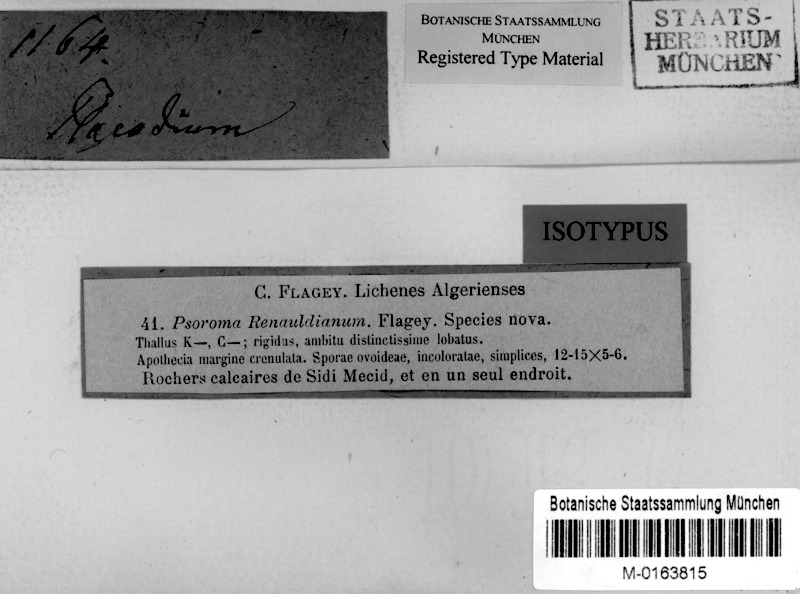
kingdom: Fungi
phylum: Ascomycota
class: Lecanoromycetes
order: Lecanorales
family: Lecanoraceae
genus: Lecanora
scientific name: Lecanora
